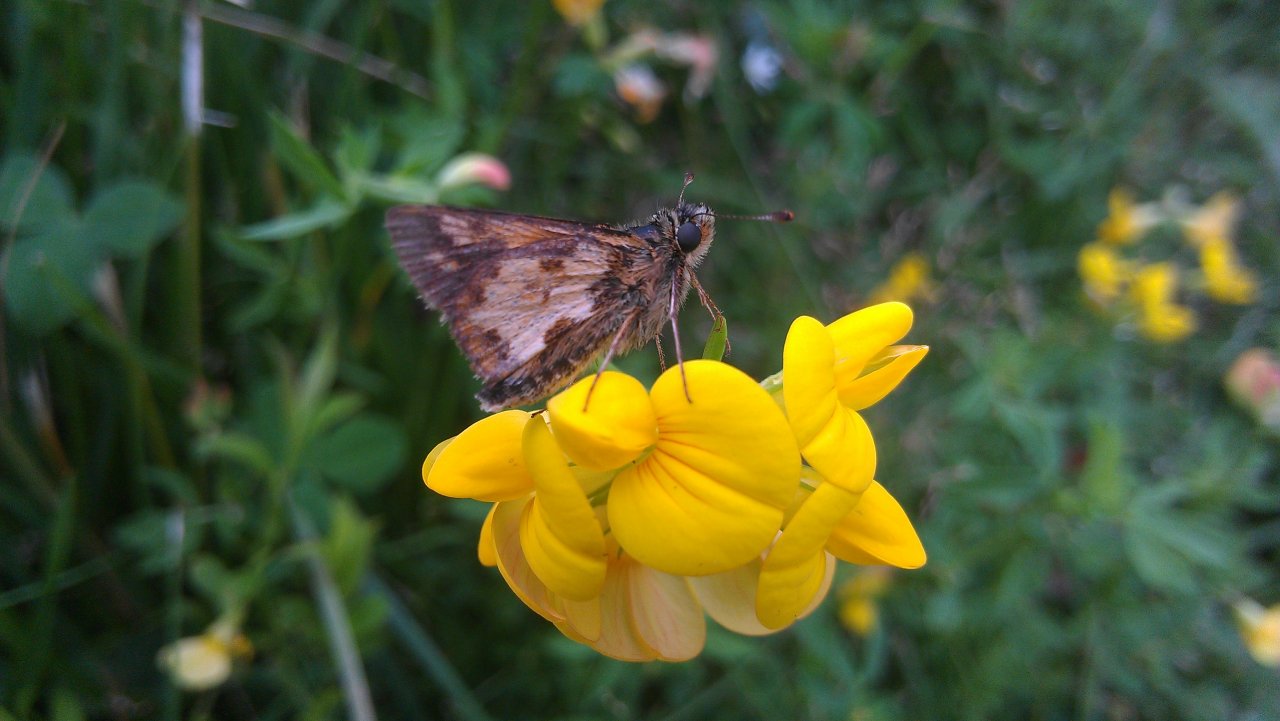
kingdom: Animalia
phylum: Arthropoda
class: Insecta
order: Lepidoptera
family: Hesperiidae
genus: Polites
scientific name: Polites coras
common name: Peck's Skipper
